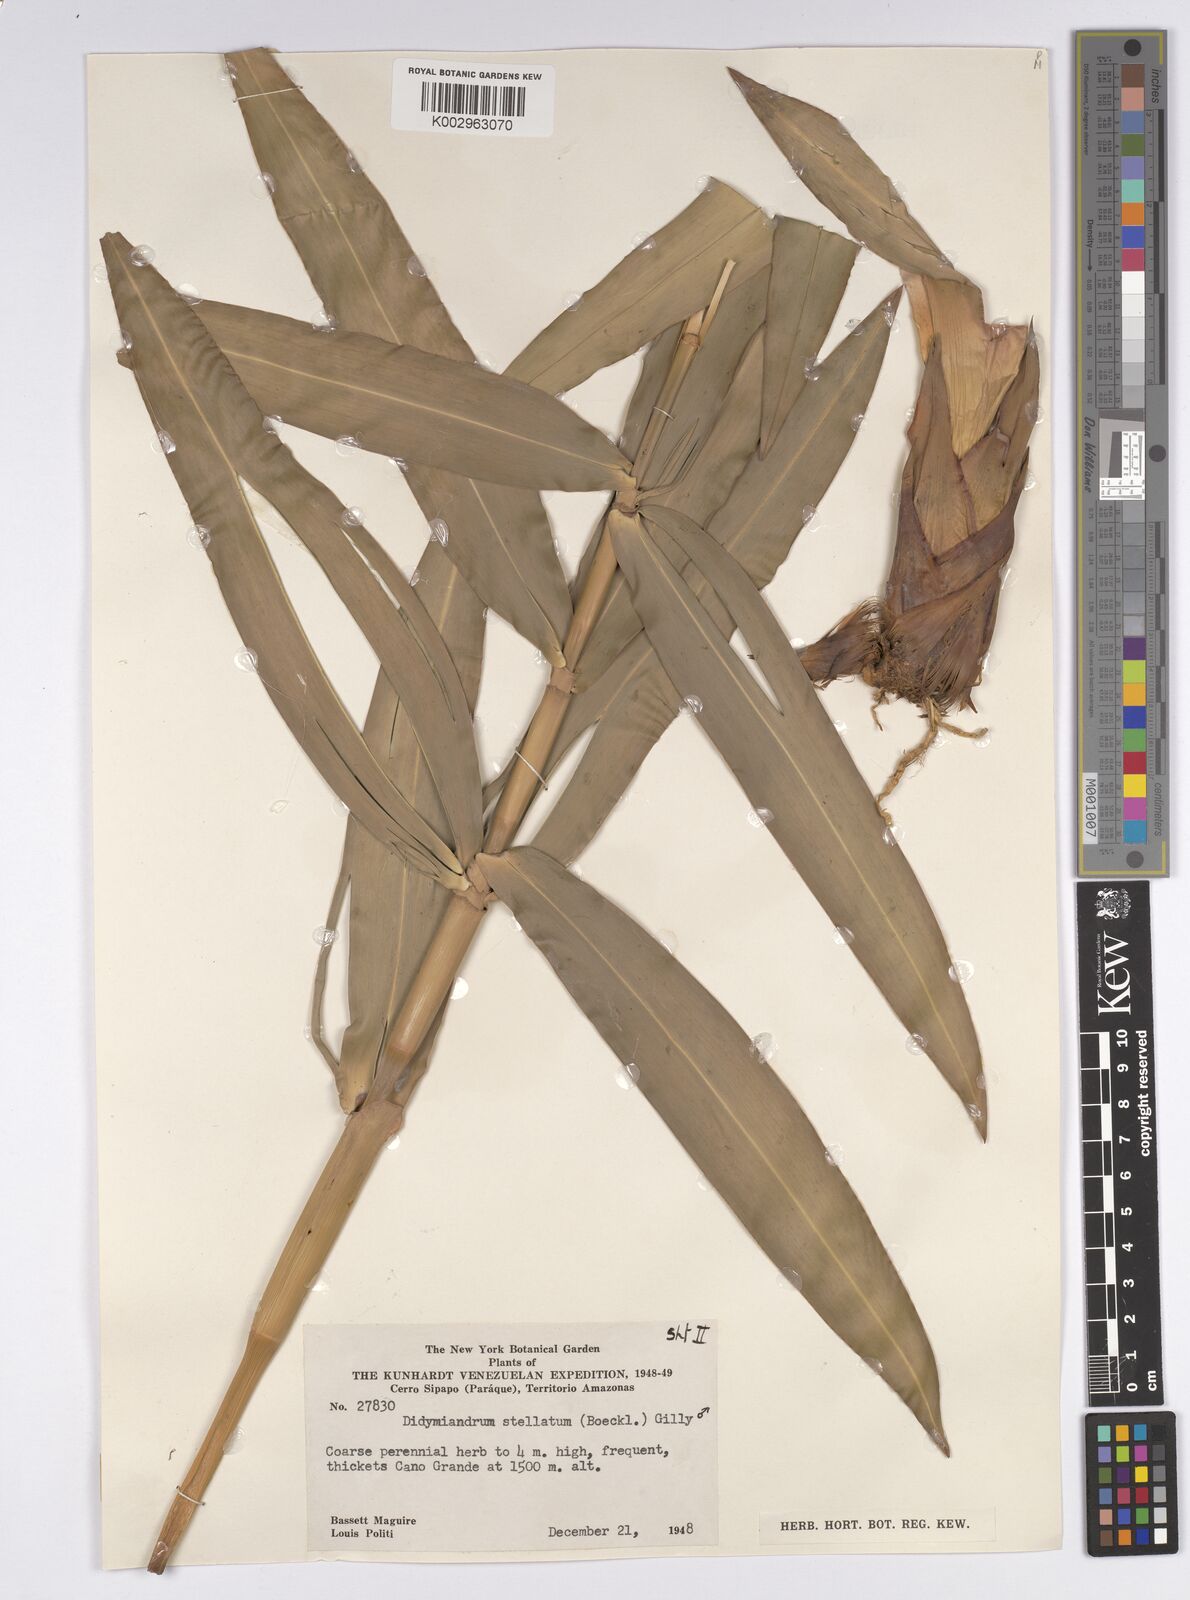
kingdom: Plantae
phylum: Tracheophyta
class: Liliopsida
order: Poales
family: Cyperaceae
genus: Didymiandrum
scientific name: Didymiandrum stellatum
